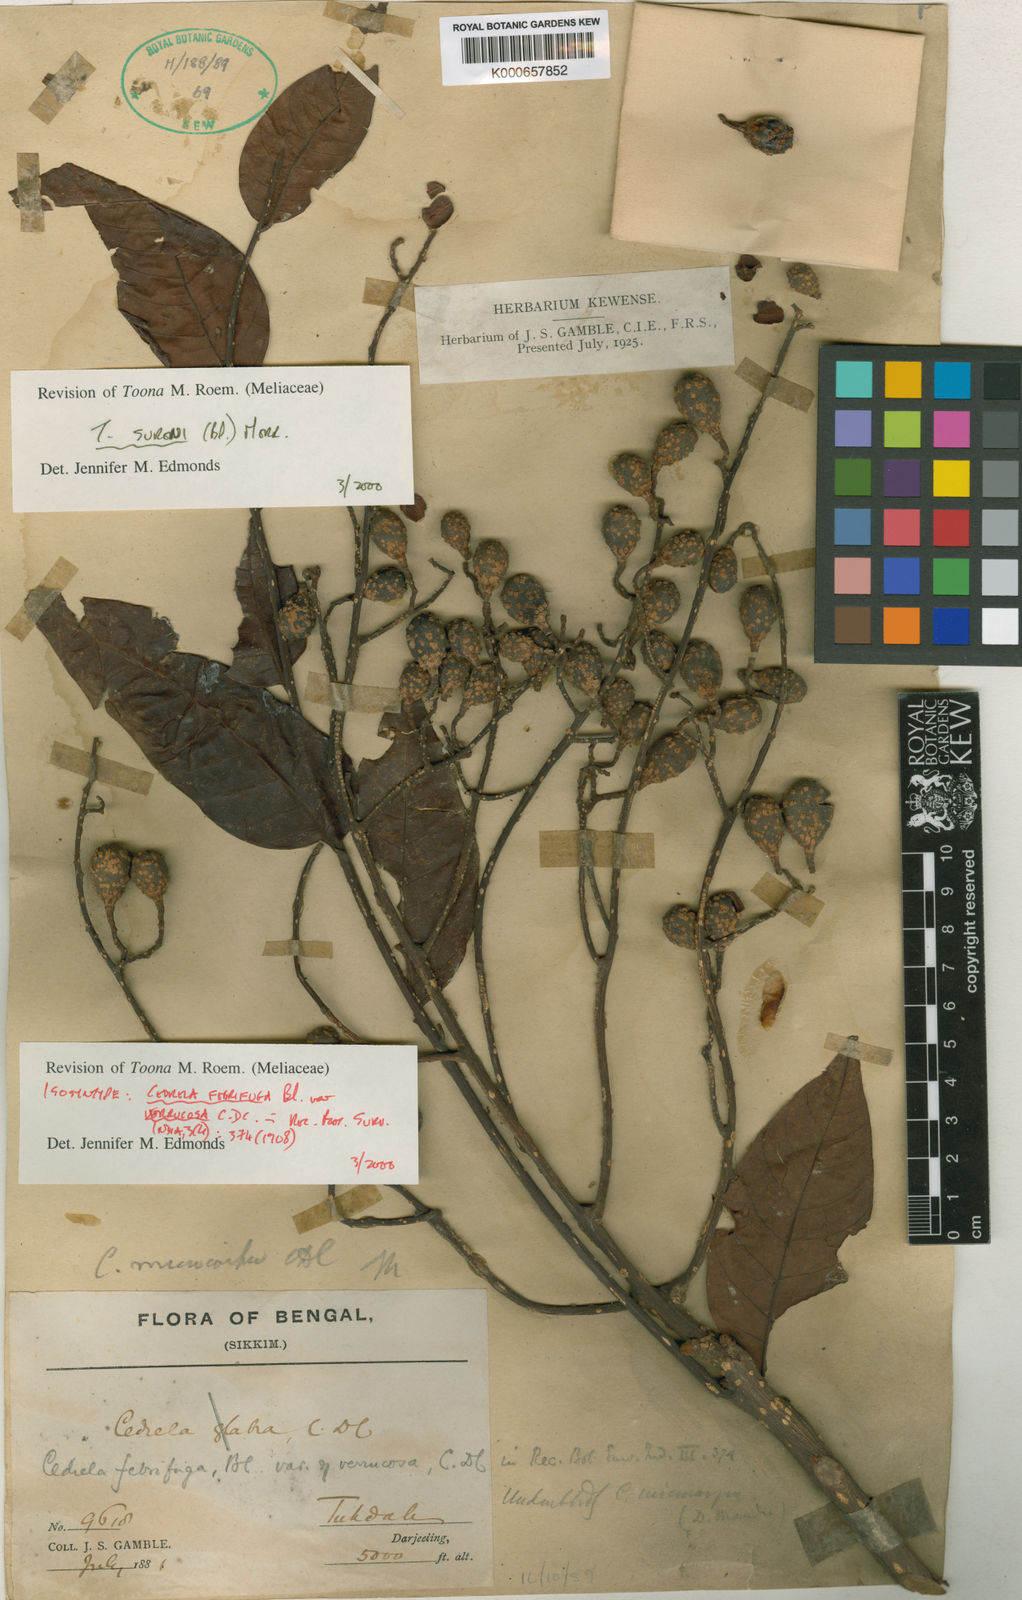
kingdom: Plantae
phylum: Tracheophyta
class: Magnoliopsida
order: Sapindales
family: Meliaceae
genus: Toona
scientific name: Toona sureni
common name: Red cedar
